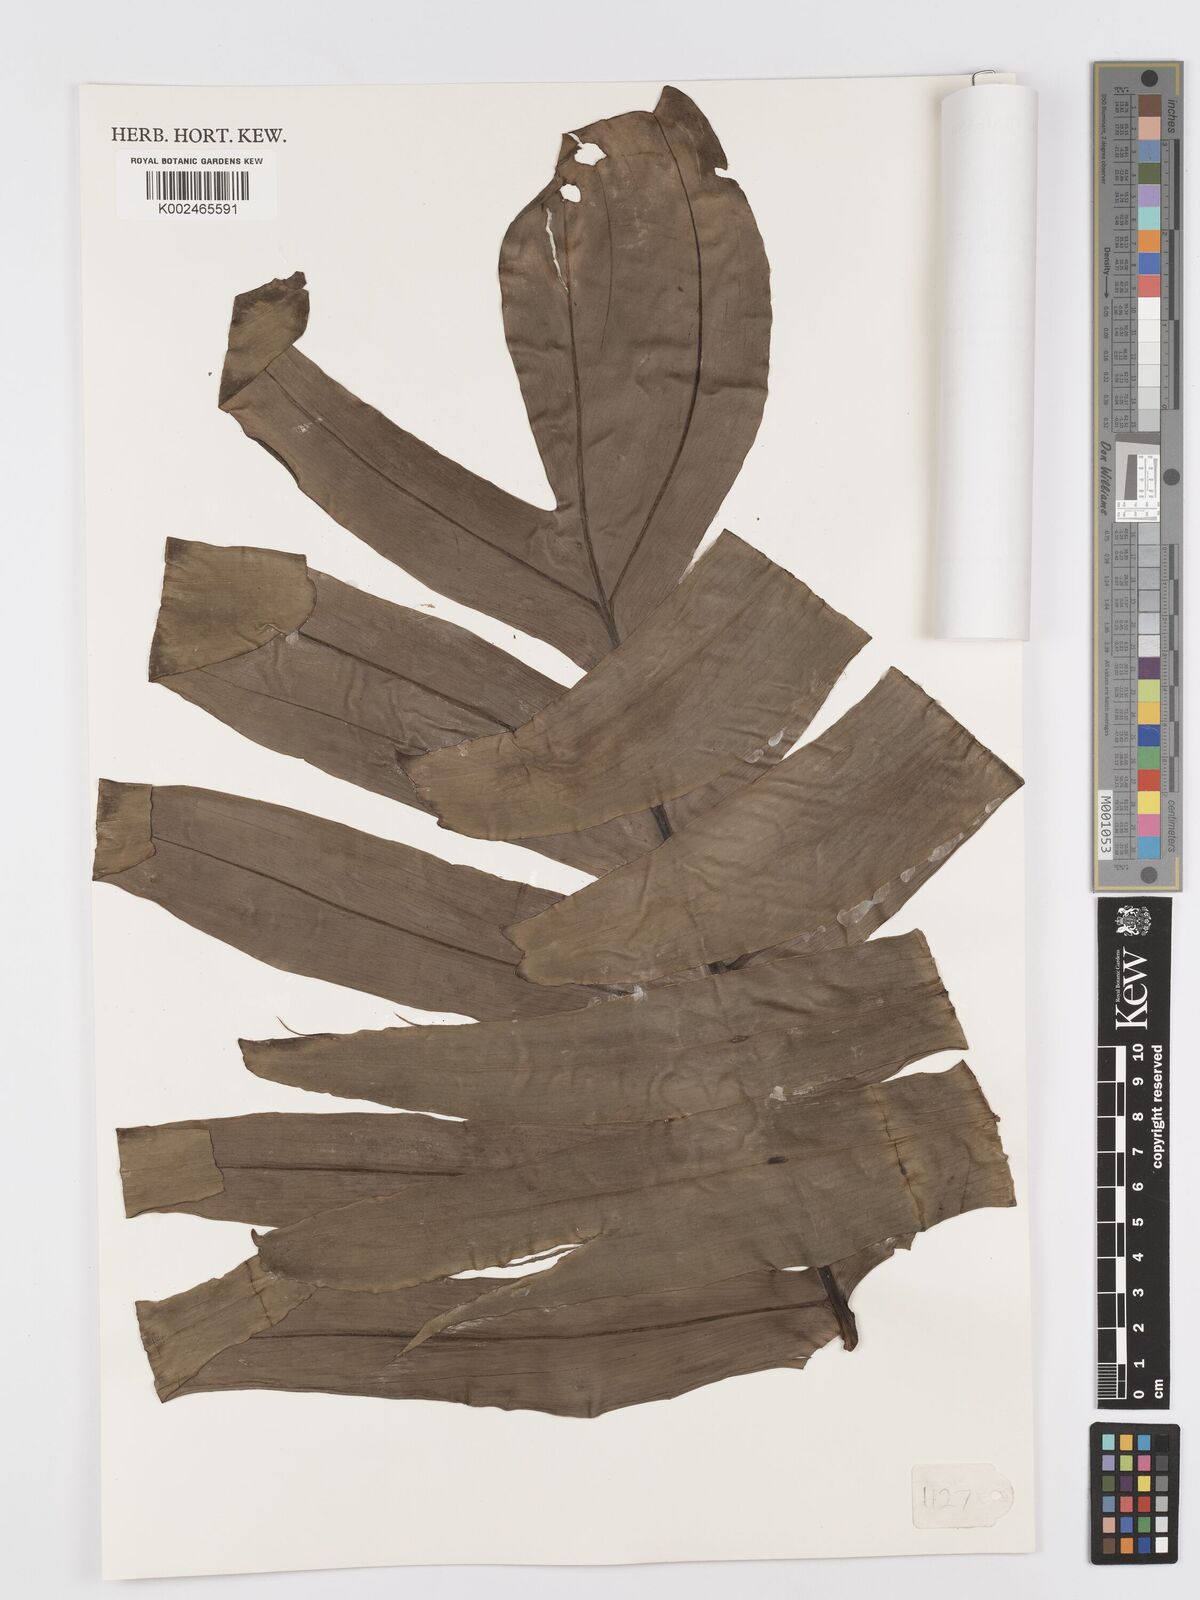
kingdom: Plantae
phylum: Tracheophyta
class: Liliopsida
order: Alismatales
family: Araceae
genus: Rhaphidophora
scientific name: Rhaphidophora decursiva
